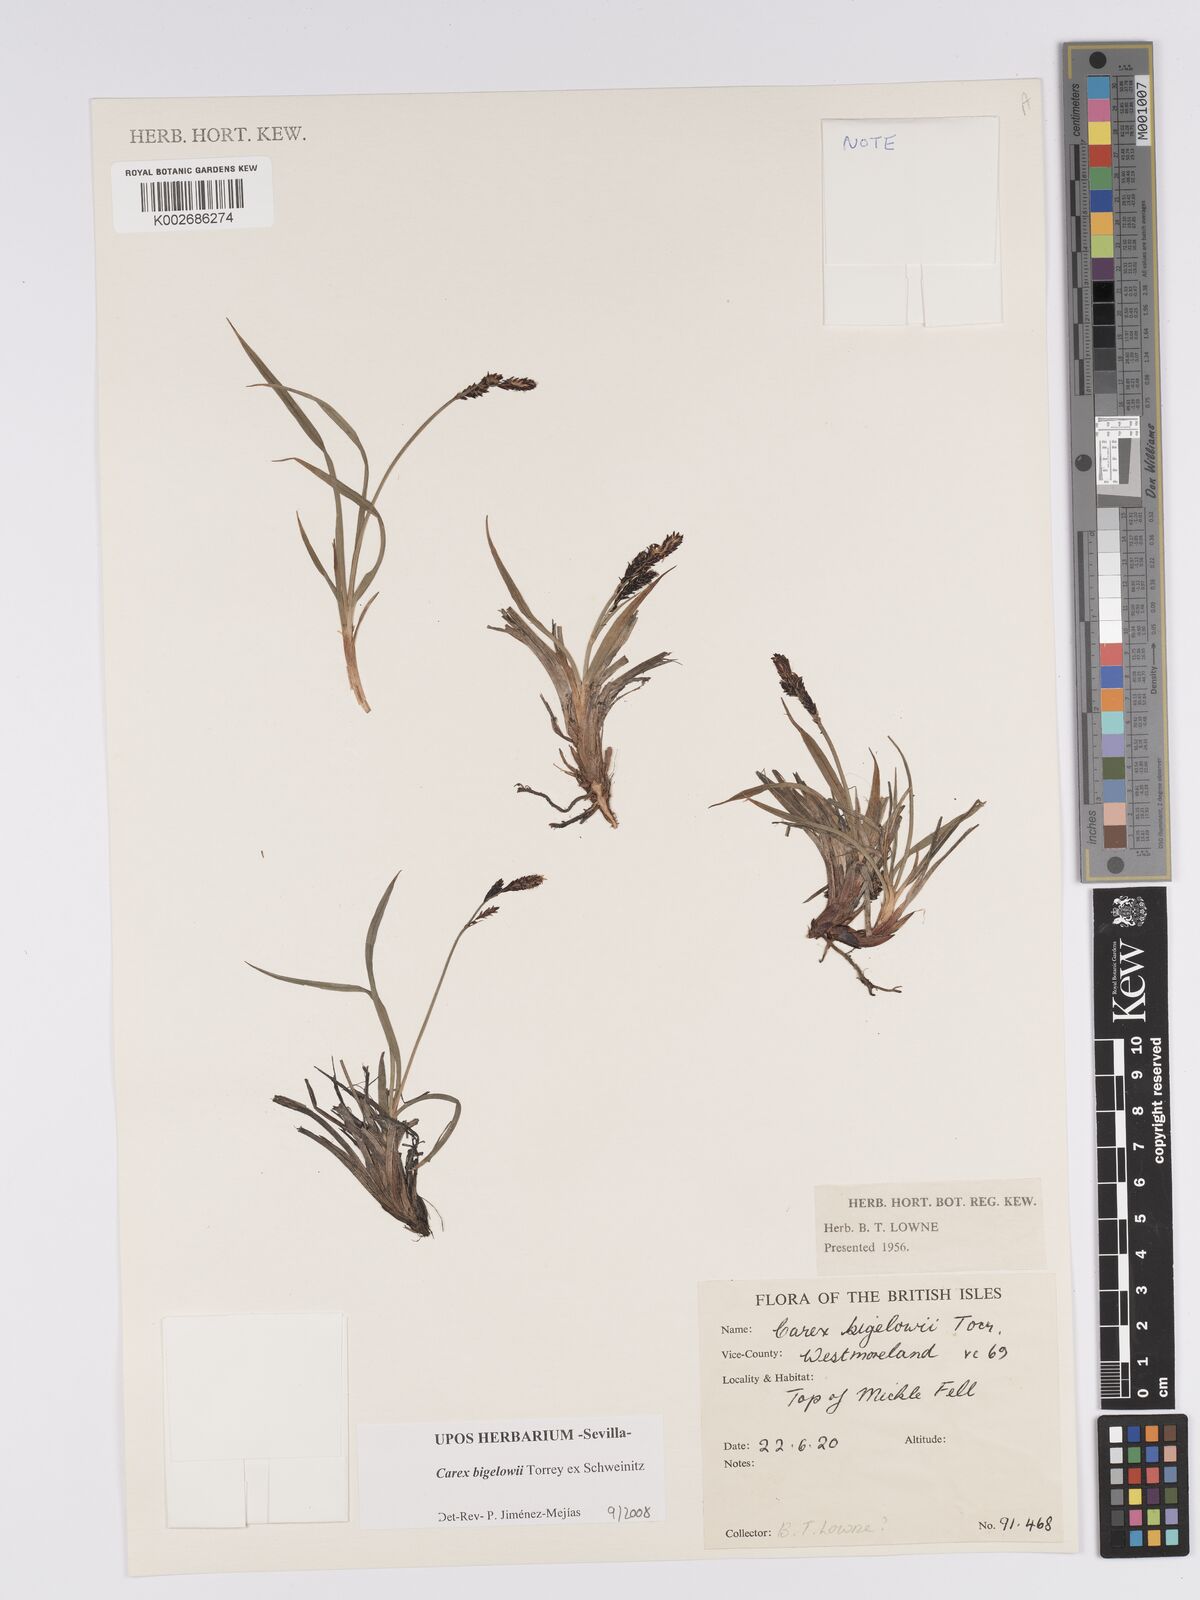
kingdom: Plantae
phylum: Tracheophyta
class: Liliopsida
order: Poales
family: Cyperaceae
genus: Carex
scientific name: Carex bigelowii
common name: Stiff sedge
